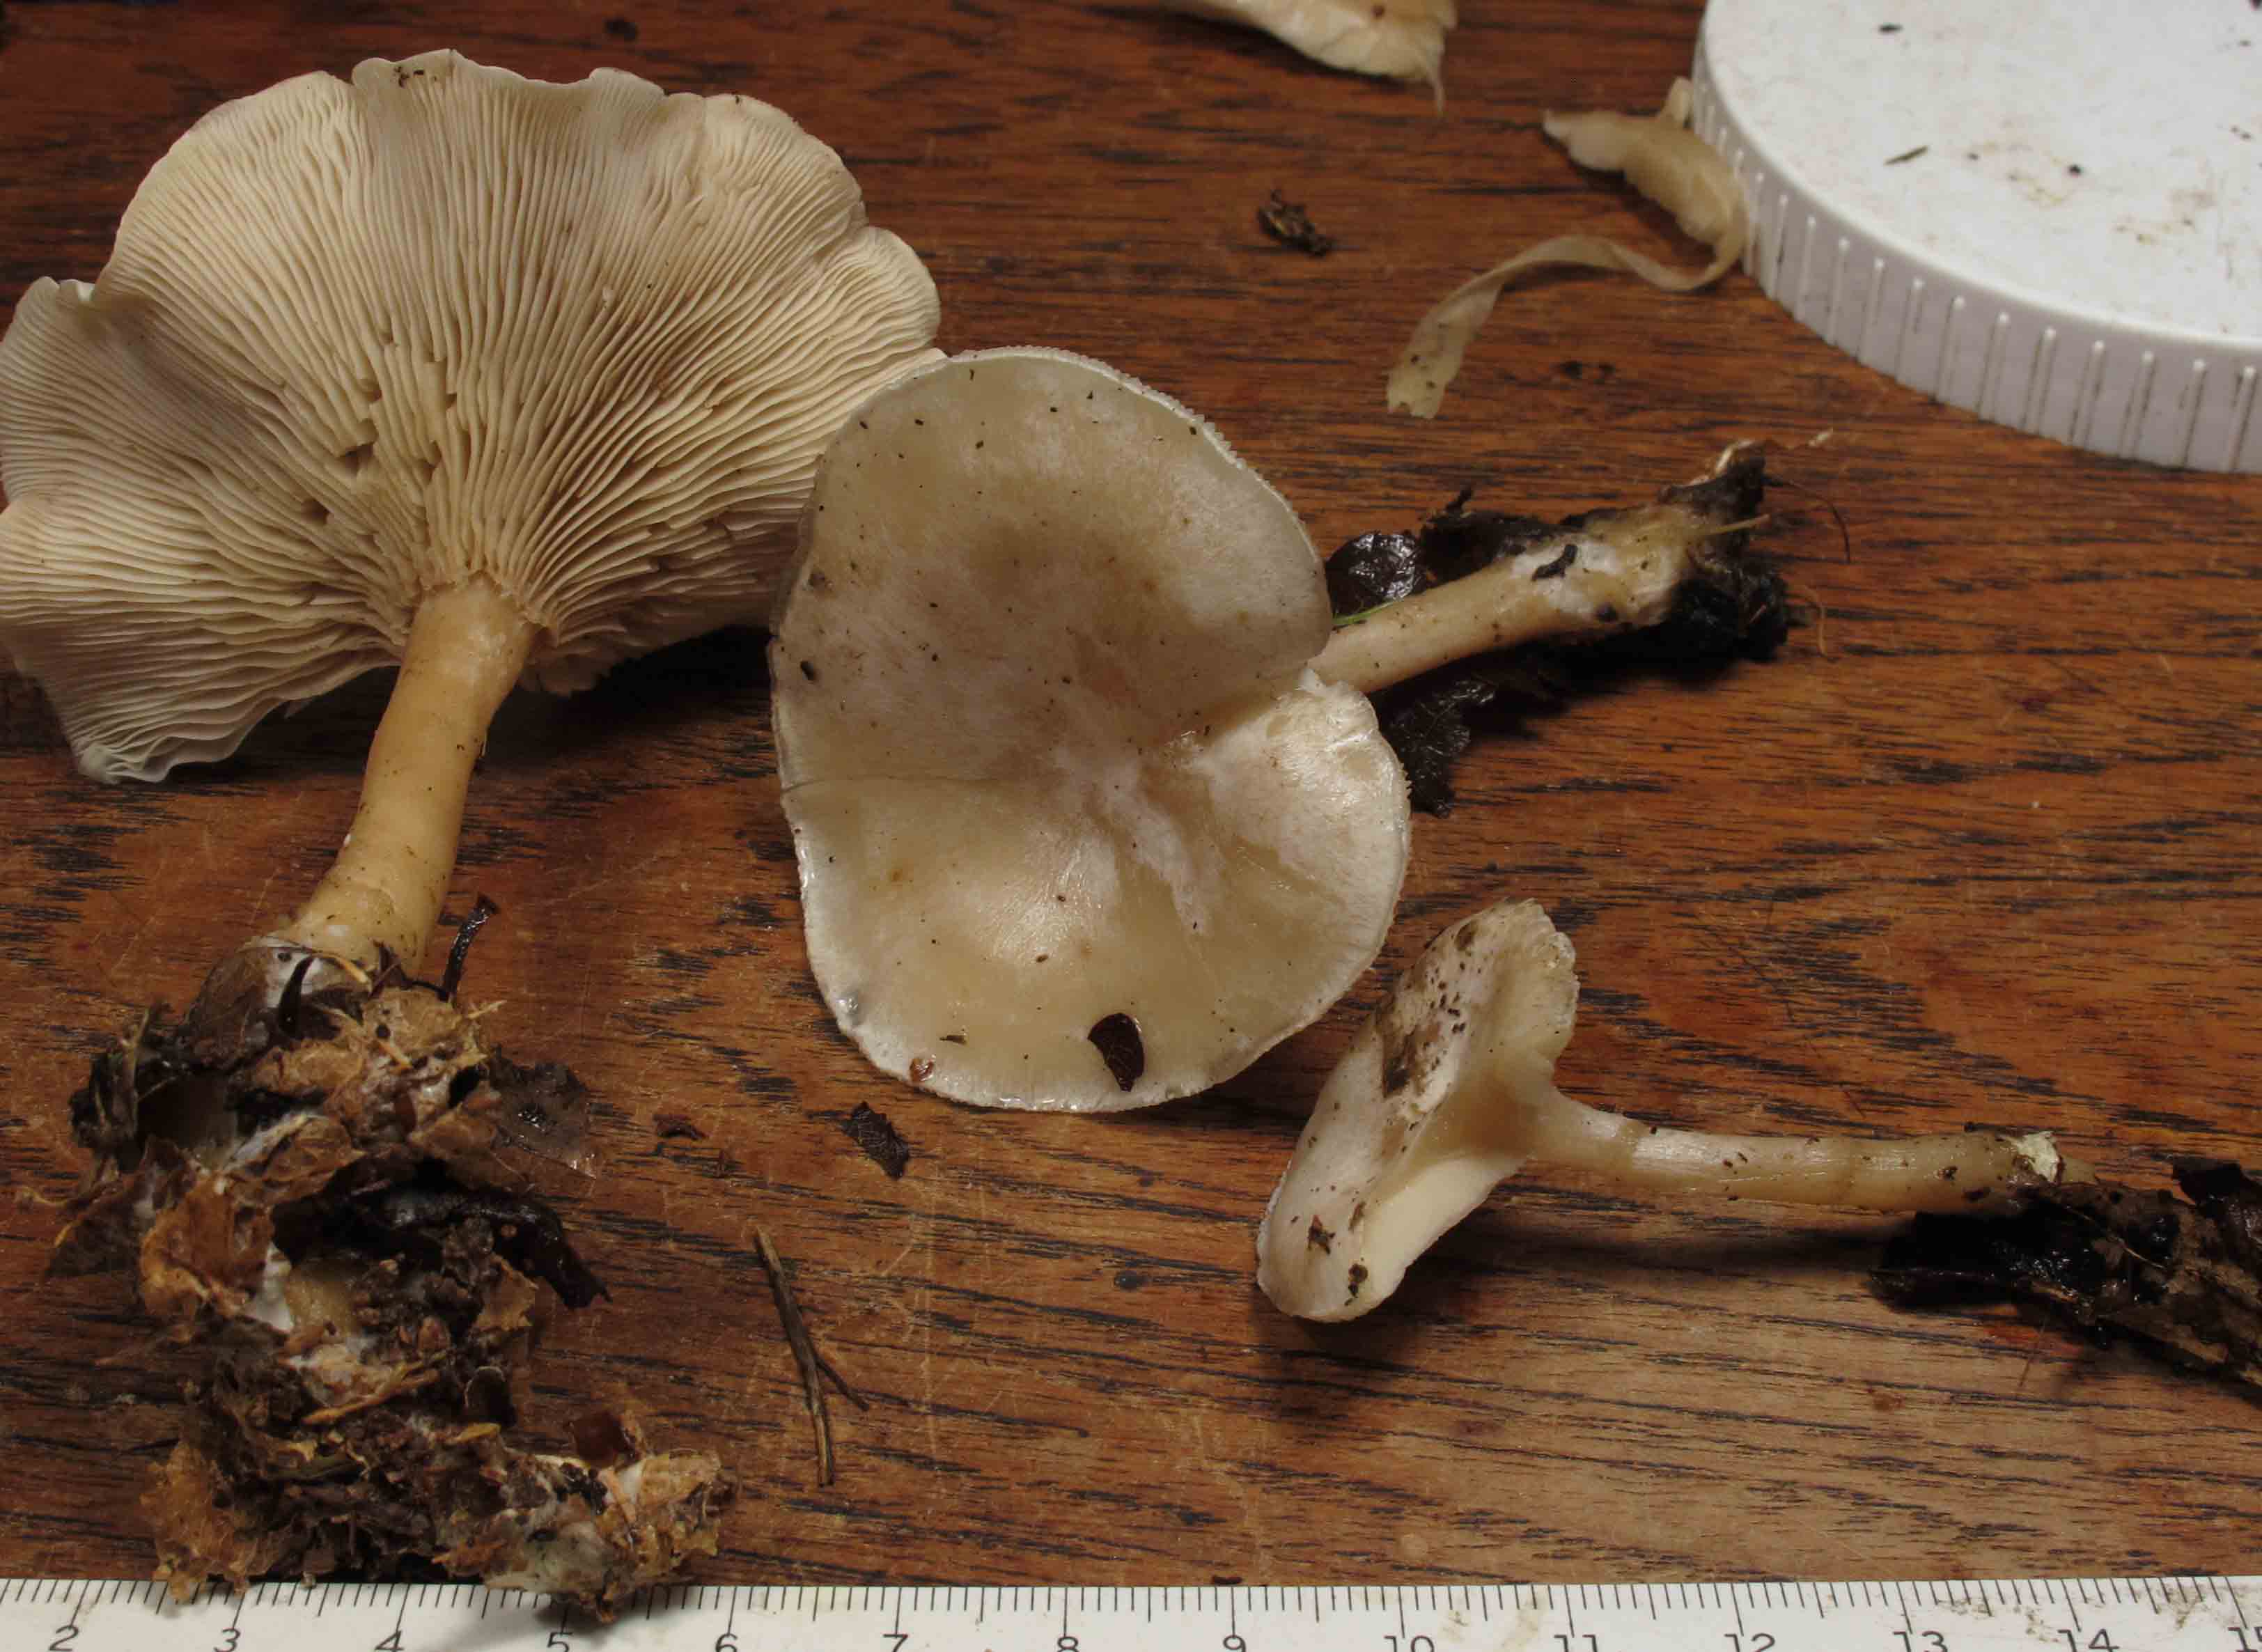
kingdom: Fungi
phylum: Basidiomycota
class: Agaricomycetes
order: Agaricales
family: Tricholomataceae
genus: Clitocybe
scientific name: Clitocybe phyllophila
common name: løv-tragthat
